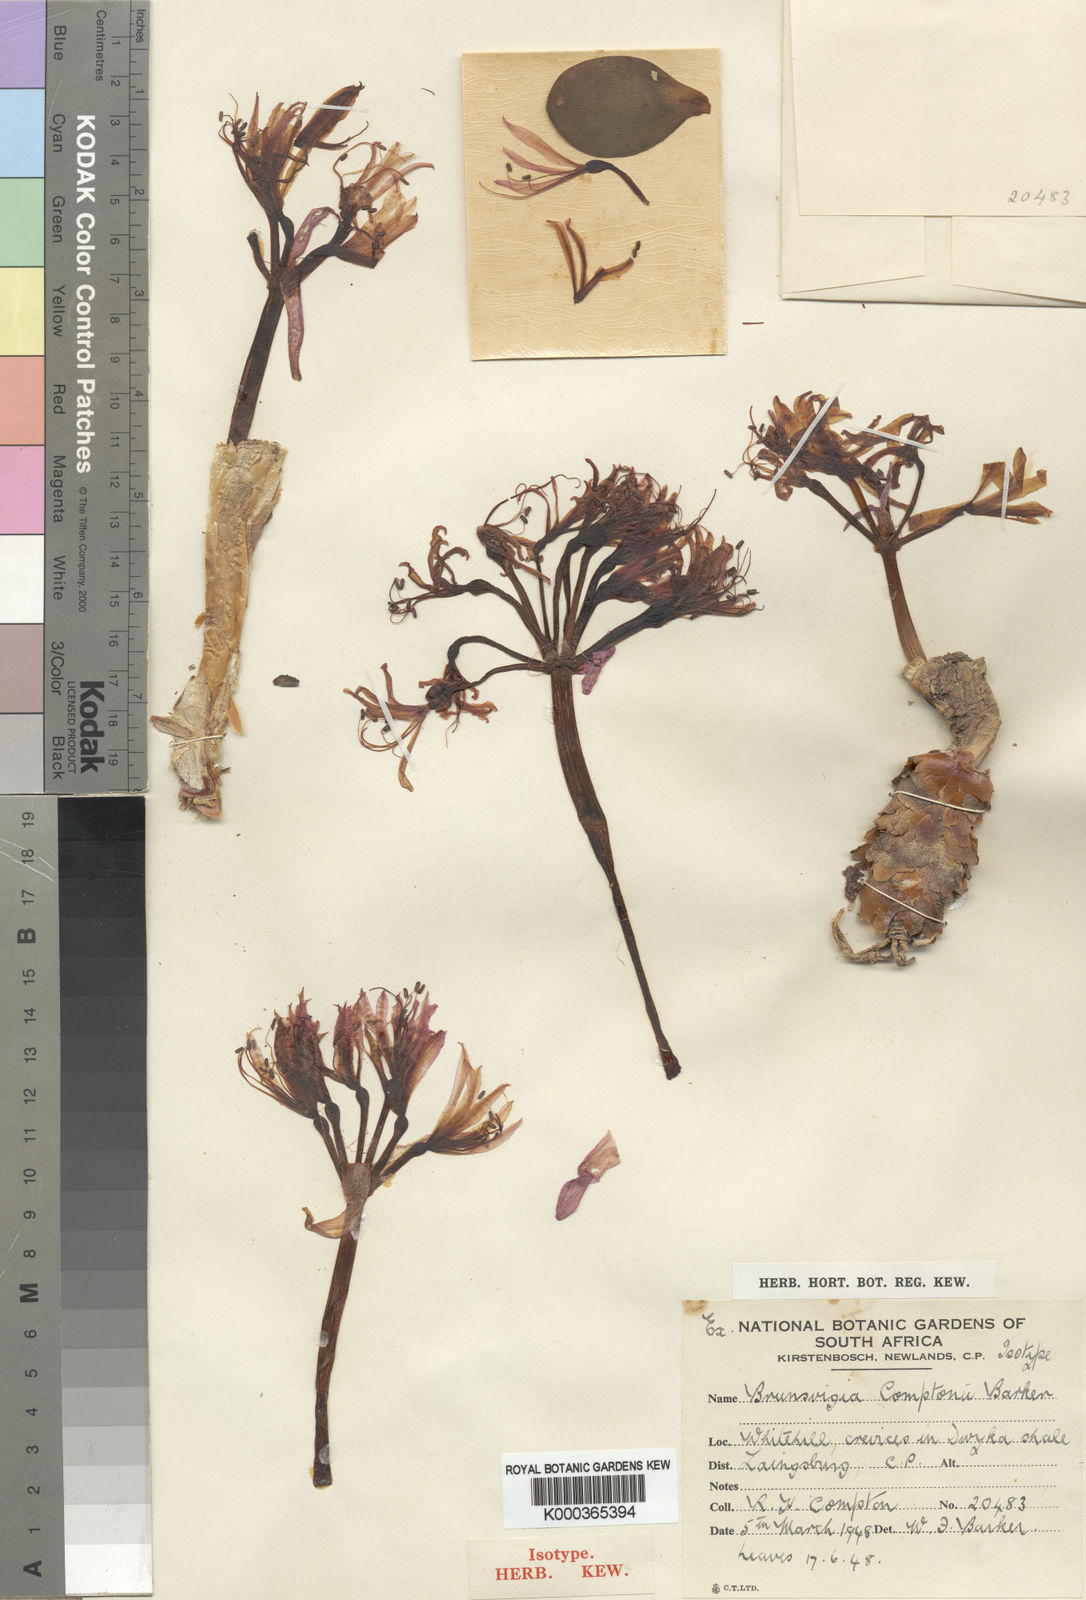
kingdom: Plantae
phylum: Tracheophyta
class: Liliopsida
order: Asparagales
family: Amaryllidaceae
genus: Brunsvigia
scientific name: Brunsvigia radula
